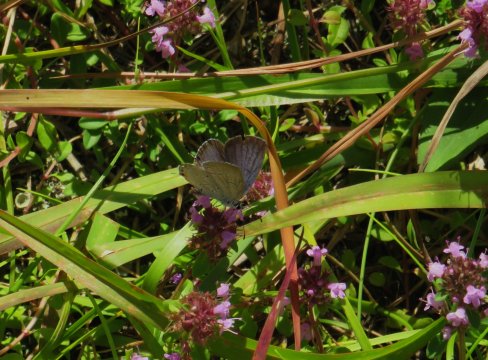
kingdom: Animalia
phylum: Arthropoda
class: Insecta
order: Lepidoptera
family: Lycaenidae
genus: Elkalyce
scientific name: Elkalyce comyntas
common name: Eastern Tailed-Blue
